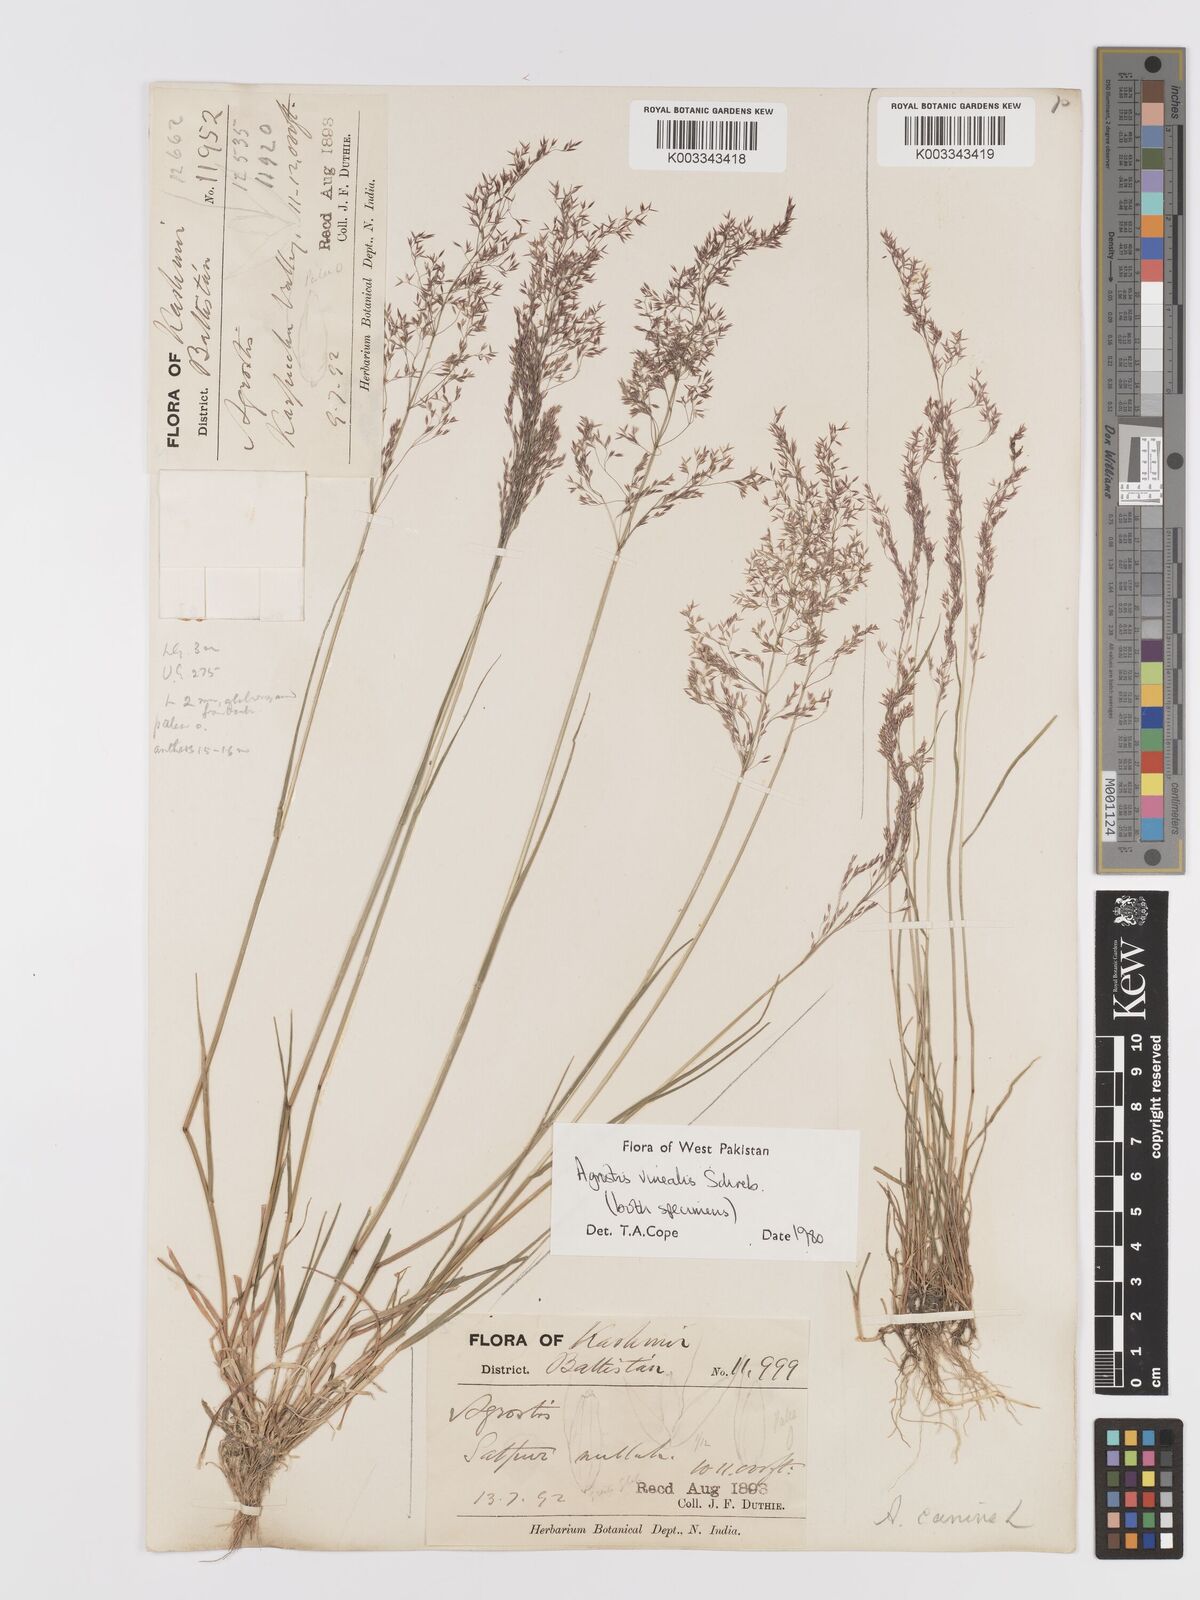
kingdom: Plantae
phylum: Tracheophyta
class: Liliopsida
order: Poales
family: Poaceae
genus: Agrostis
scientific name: Agrostis vinealis
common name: Brown bent
